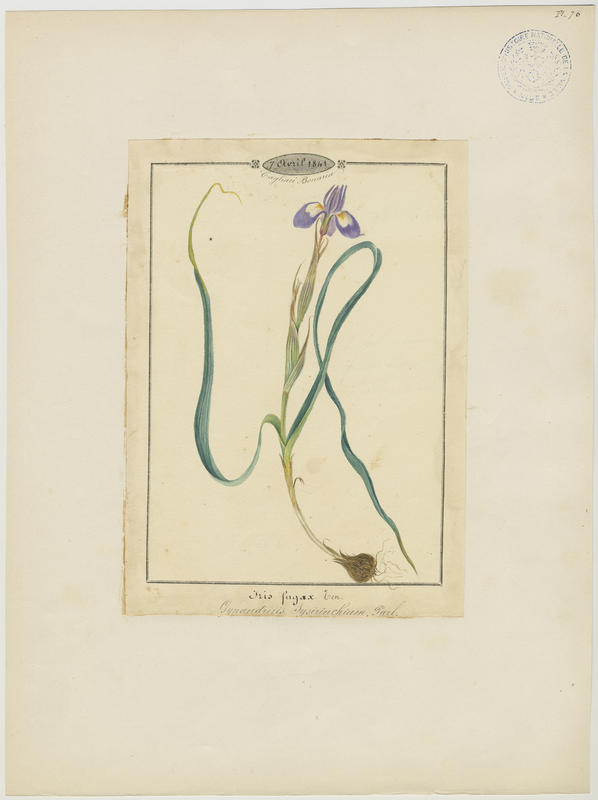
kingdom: Plantae
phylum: Tracheophyta
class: Liliopsida
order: Asparagales
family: Iridaceae
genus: Moraea
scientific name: Moraea sisyrinchium
